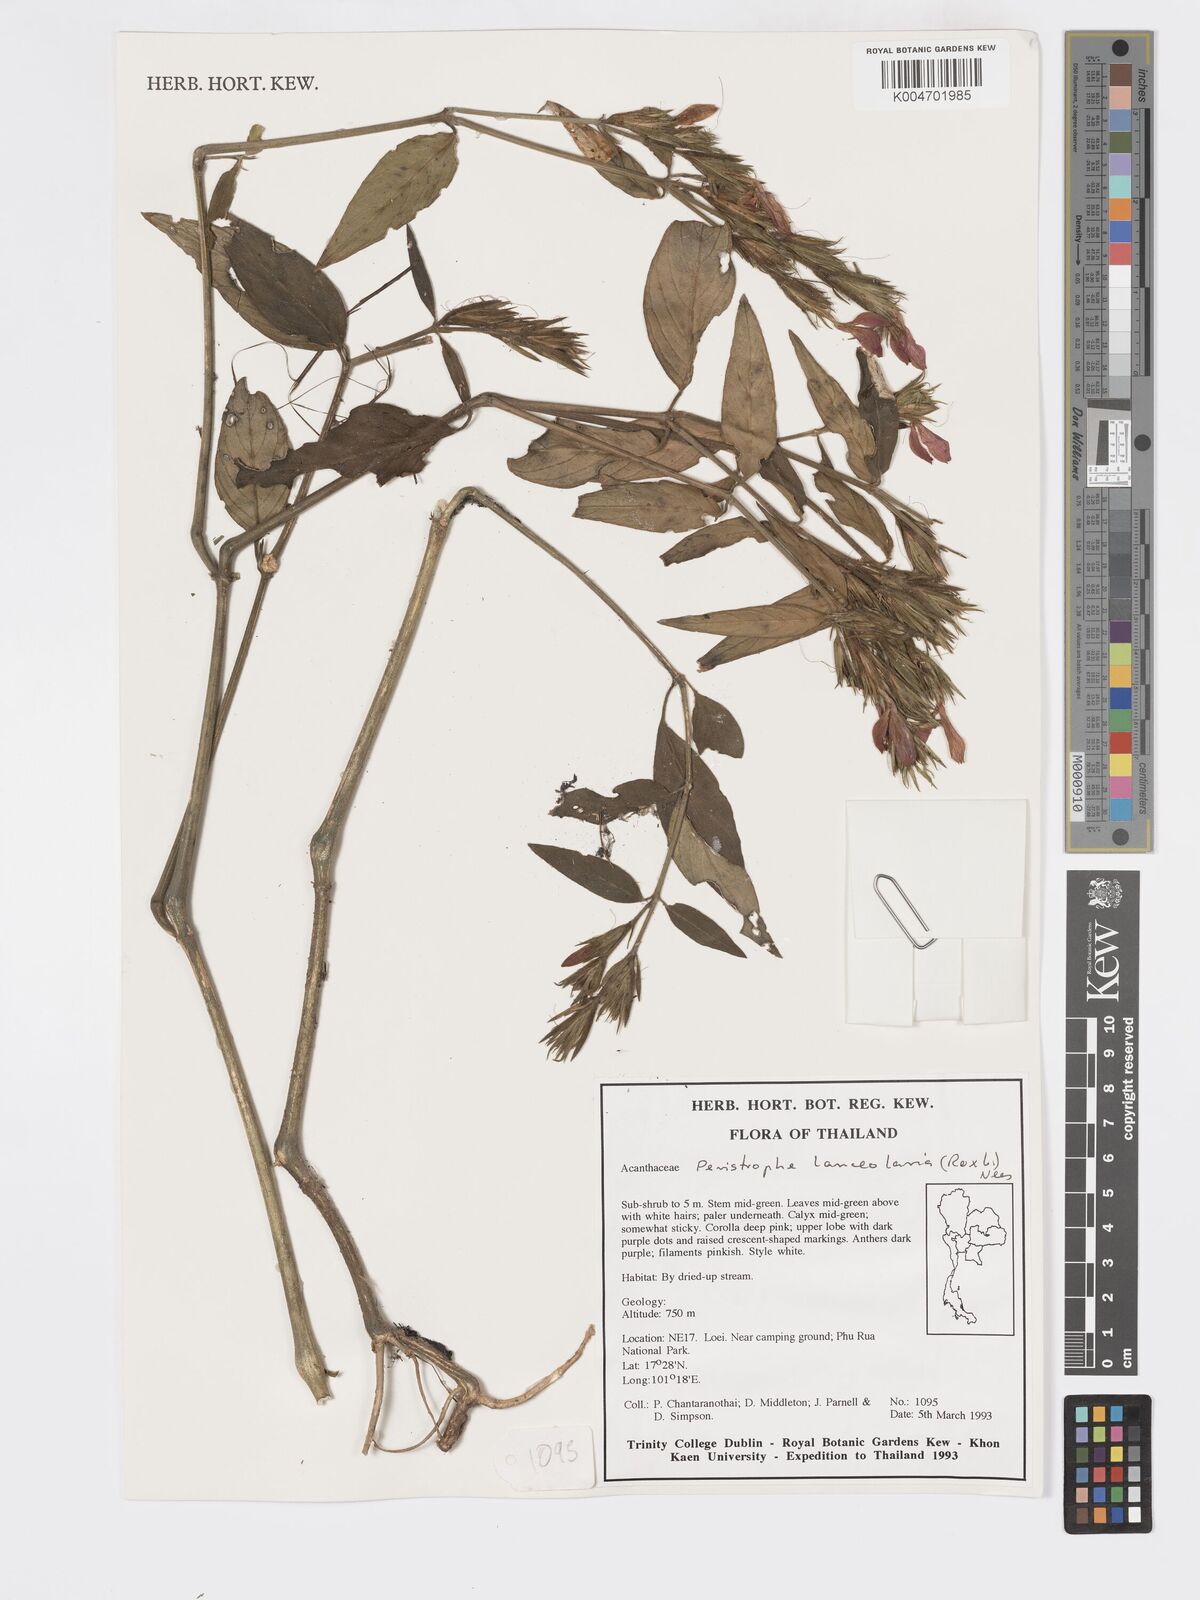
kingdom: Plantae
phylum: Tracheophyta
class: Magnoliopsida
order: Lamiales
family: Acanthaceae
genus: Dicliptera
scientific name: Dicliptera lanceolaria
